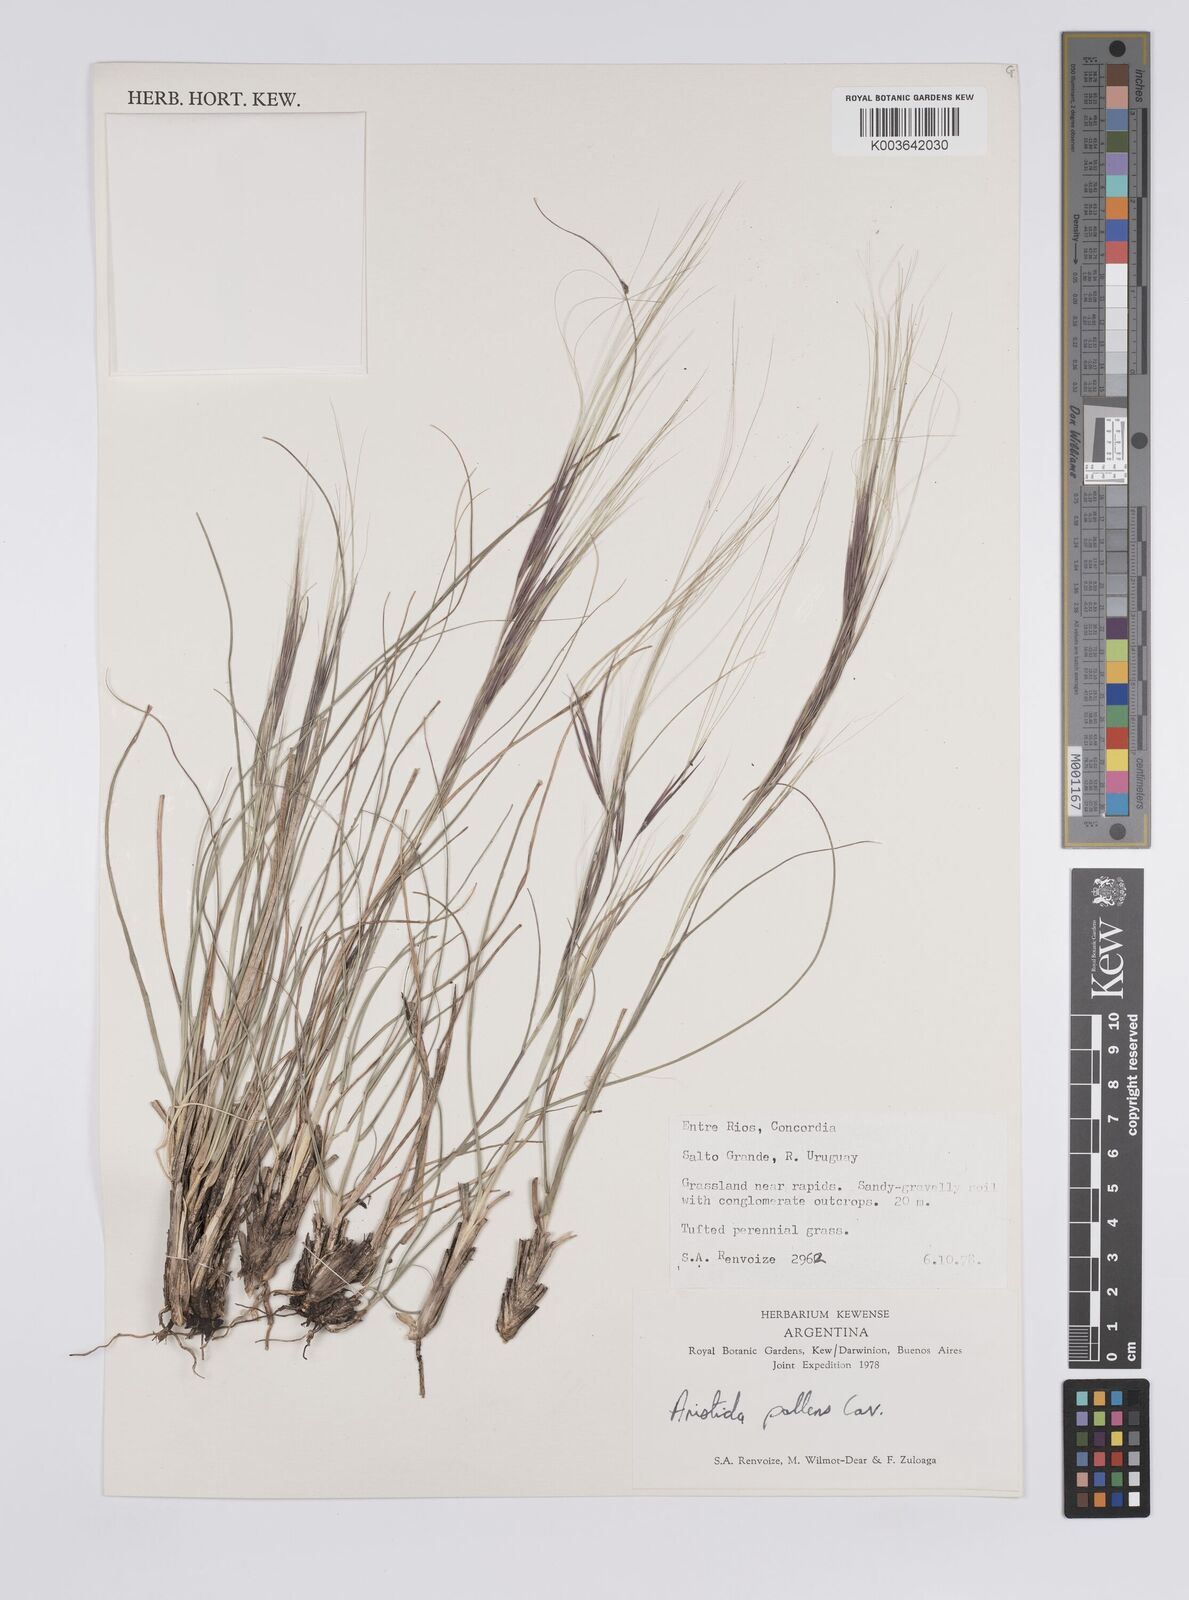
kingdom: Plantae
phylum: Tracheophyta
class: Liliopsida
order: Poales
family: Poaceae
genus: Aristida
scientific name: Aristida pallens
